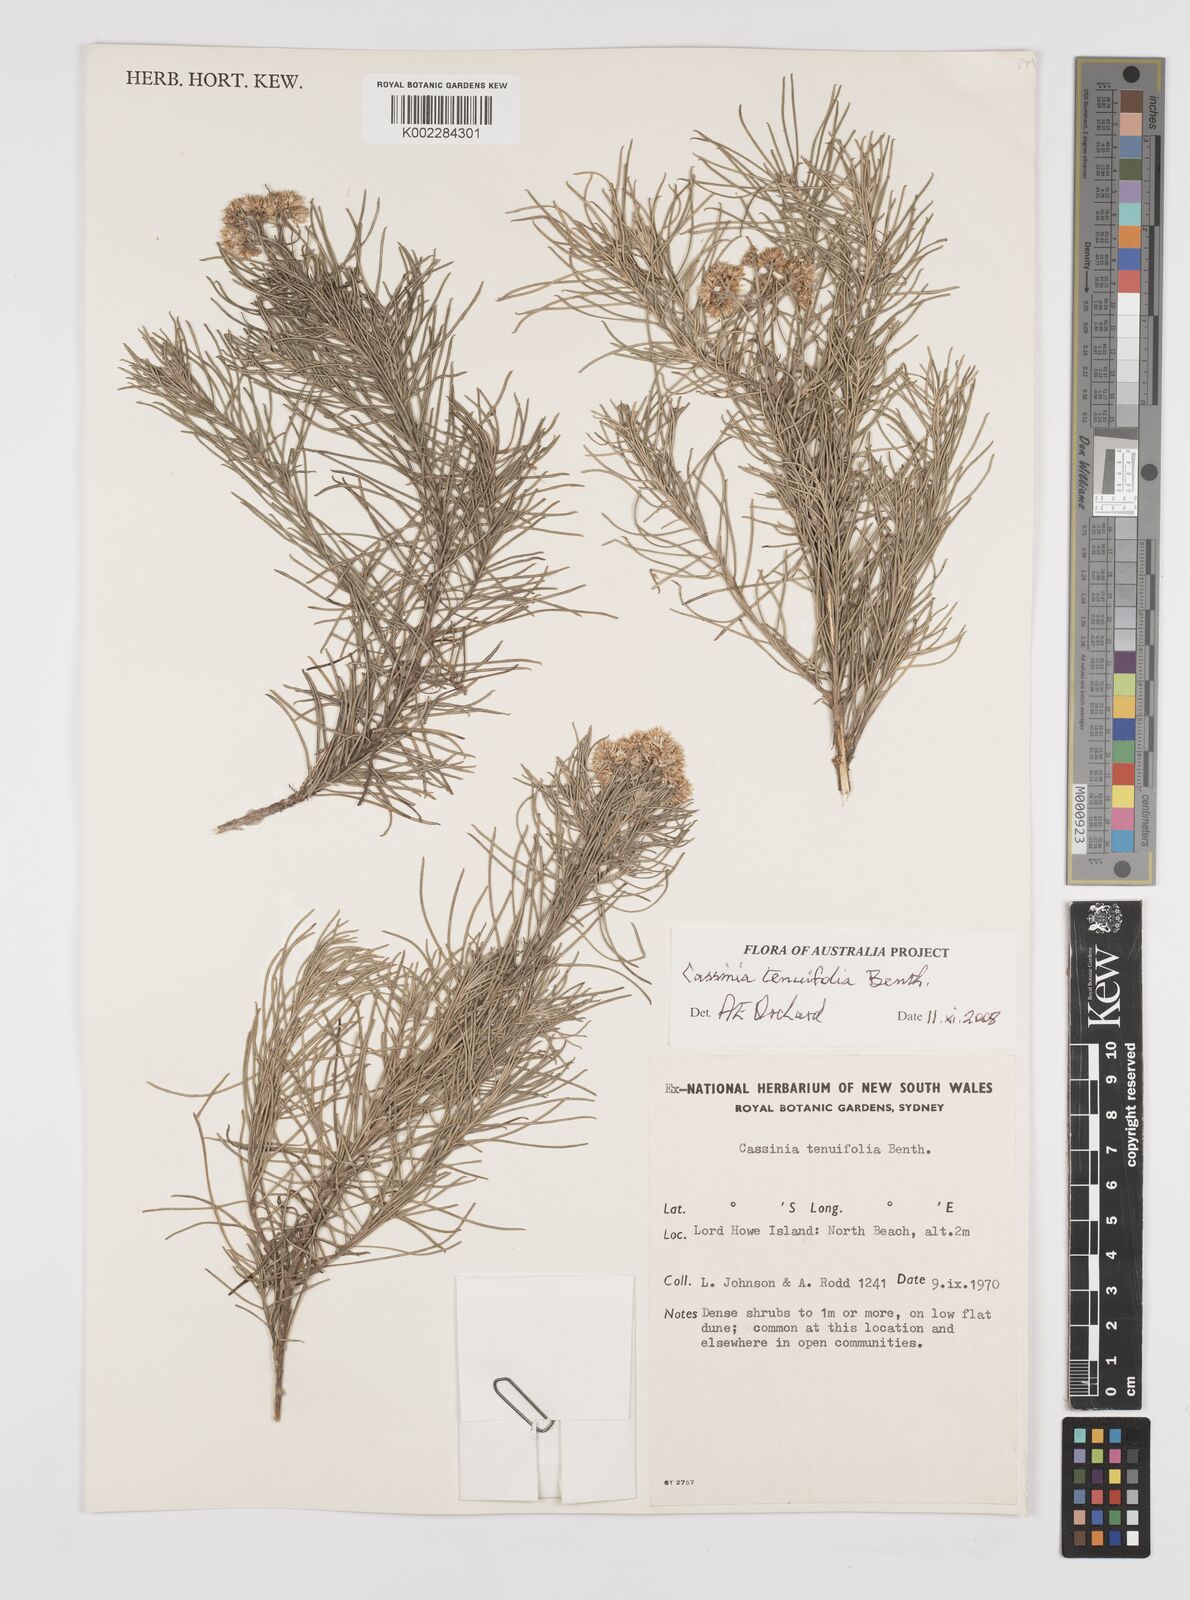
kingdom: Plantae
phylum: Tracheophyta
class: Magnoliopsida
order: Asterales
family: Asteraceae
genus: Cassinia
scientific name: Cassinia tenuifolia
